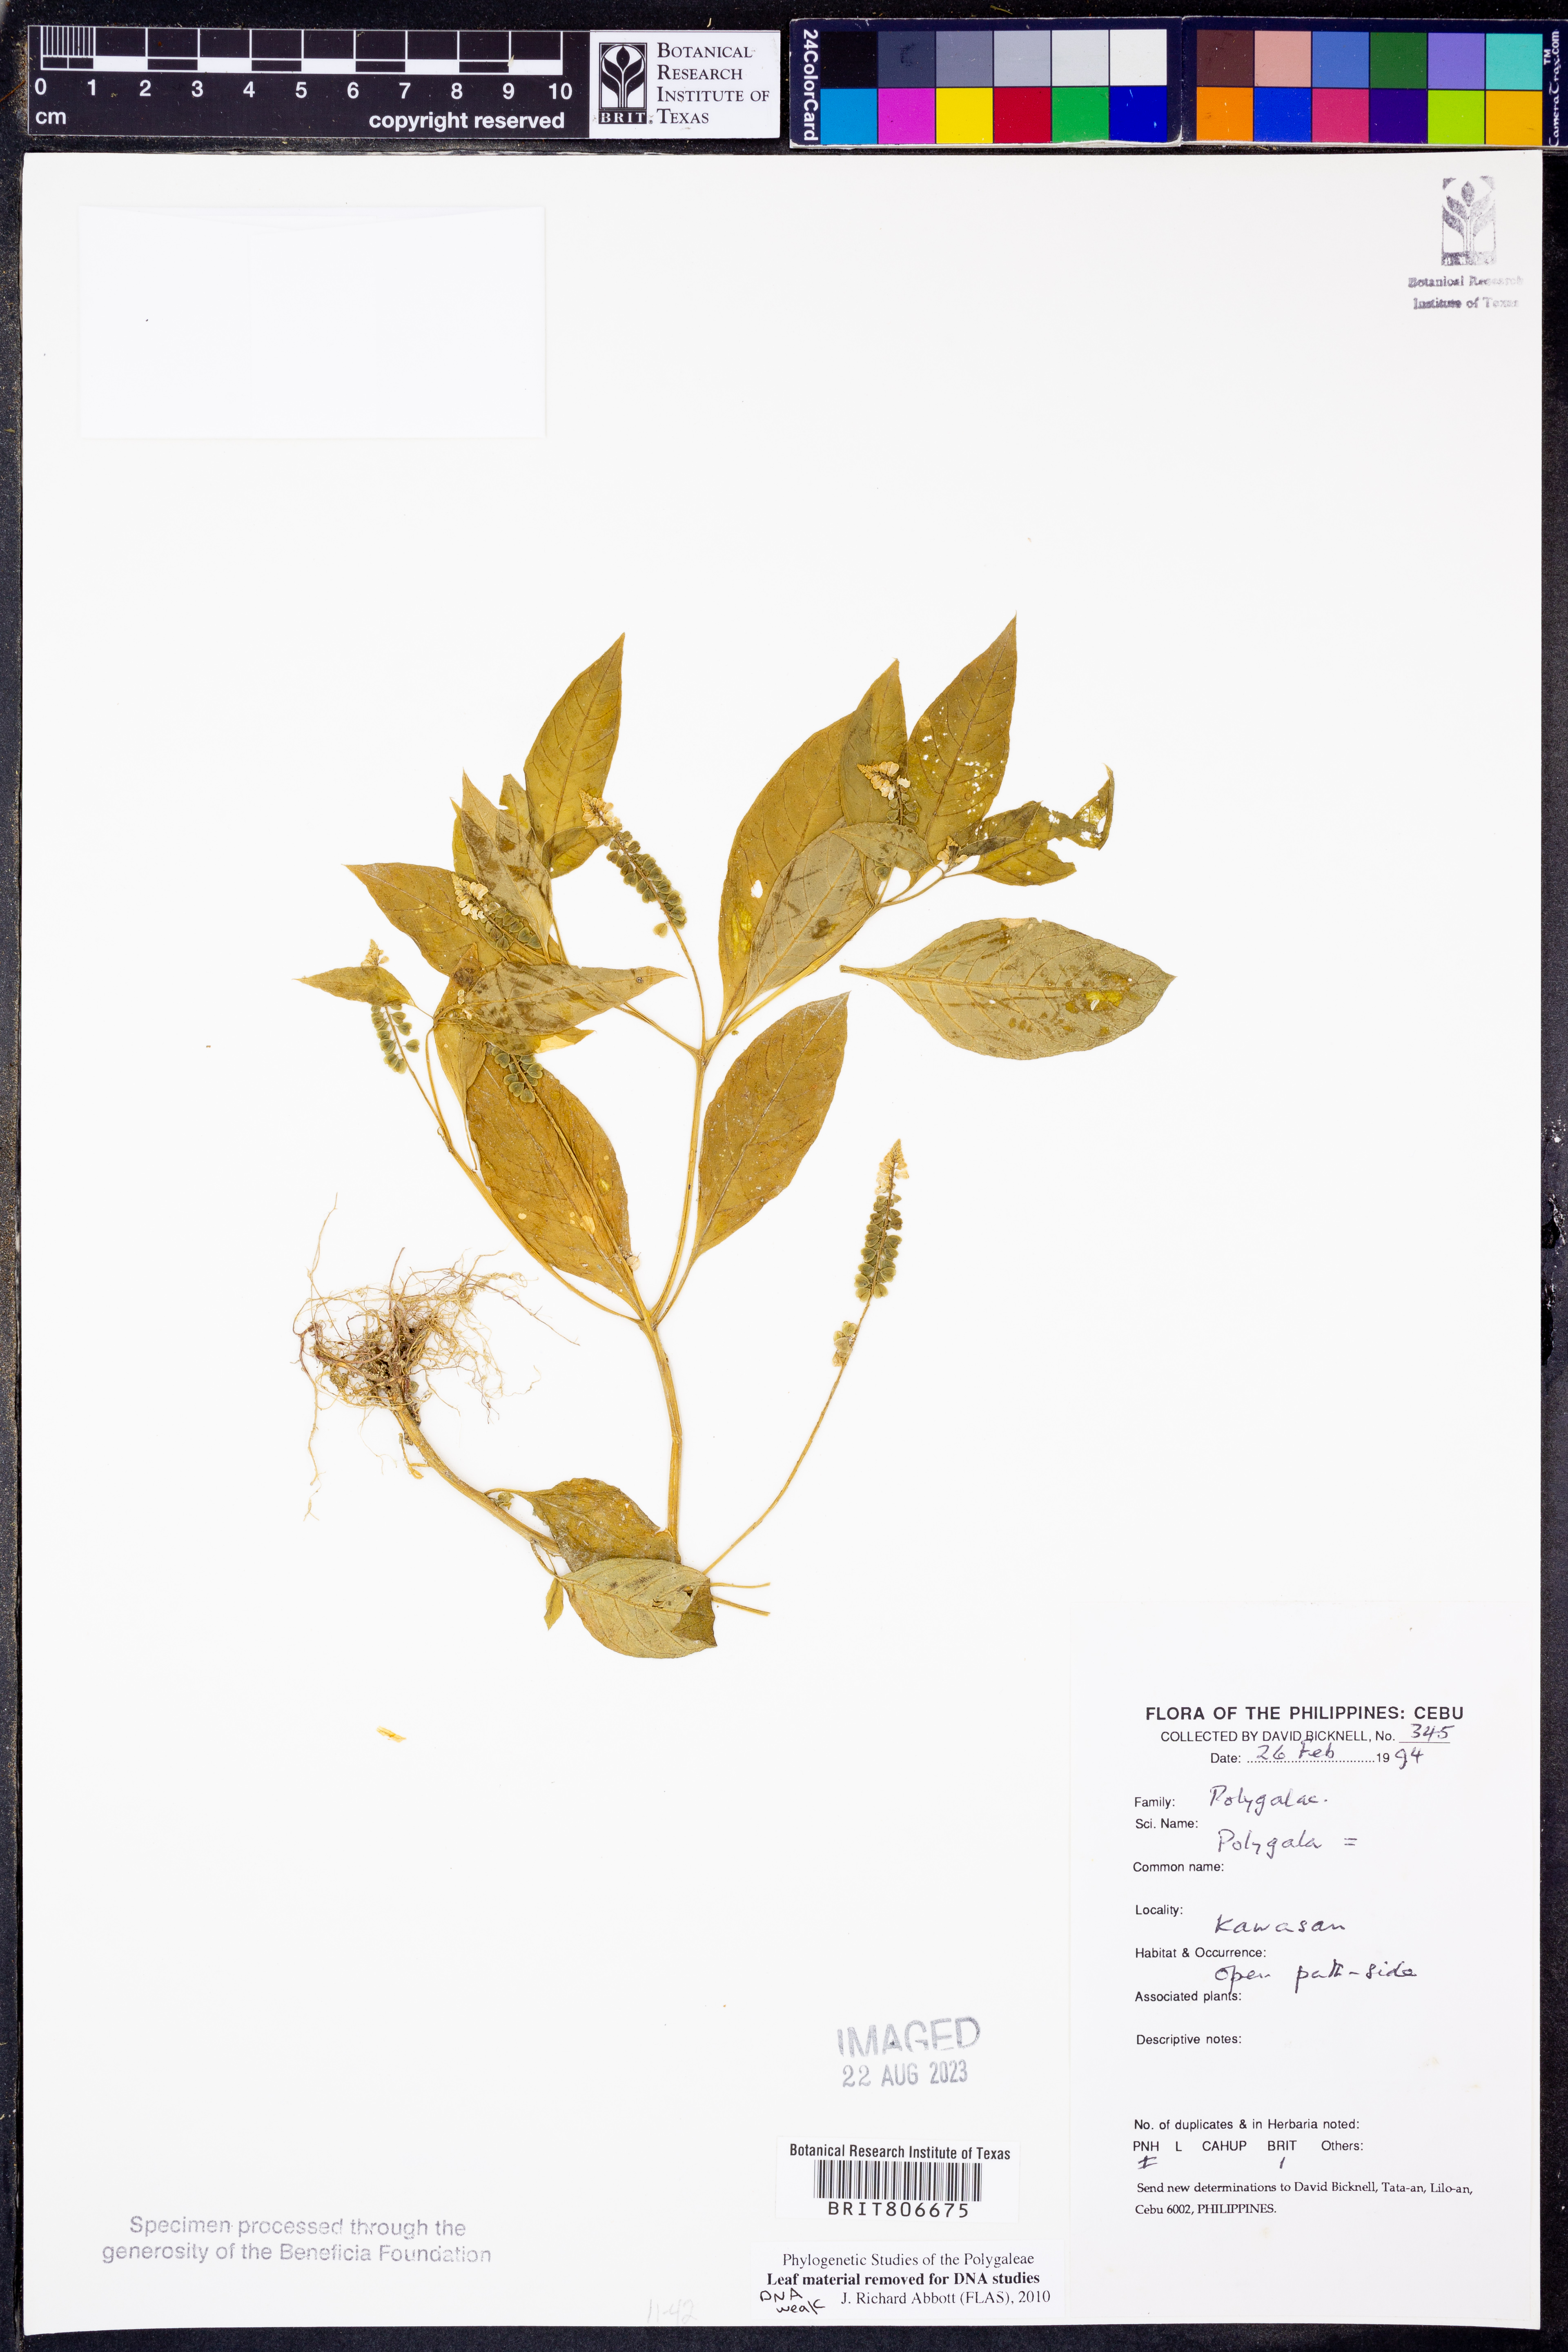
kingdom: Plantae
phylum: Tracheophyta
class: Magnoliopsida
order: Fabales
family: Polygalaceae
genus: Polygala
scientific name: Polygala
